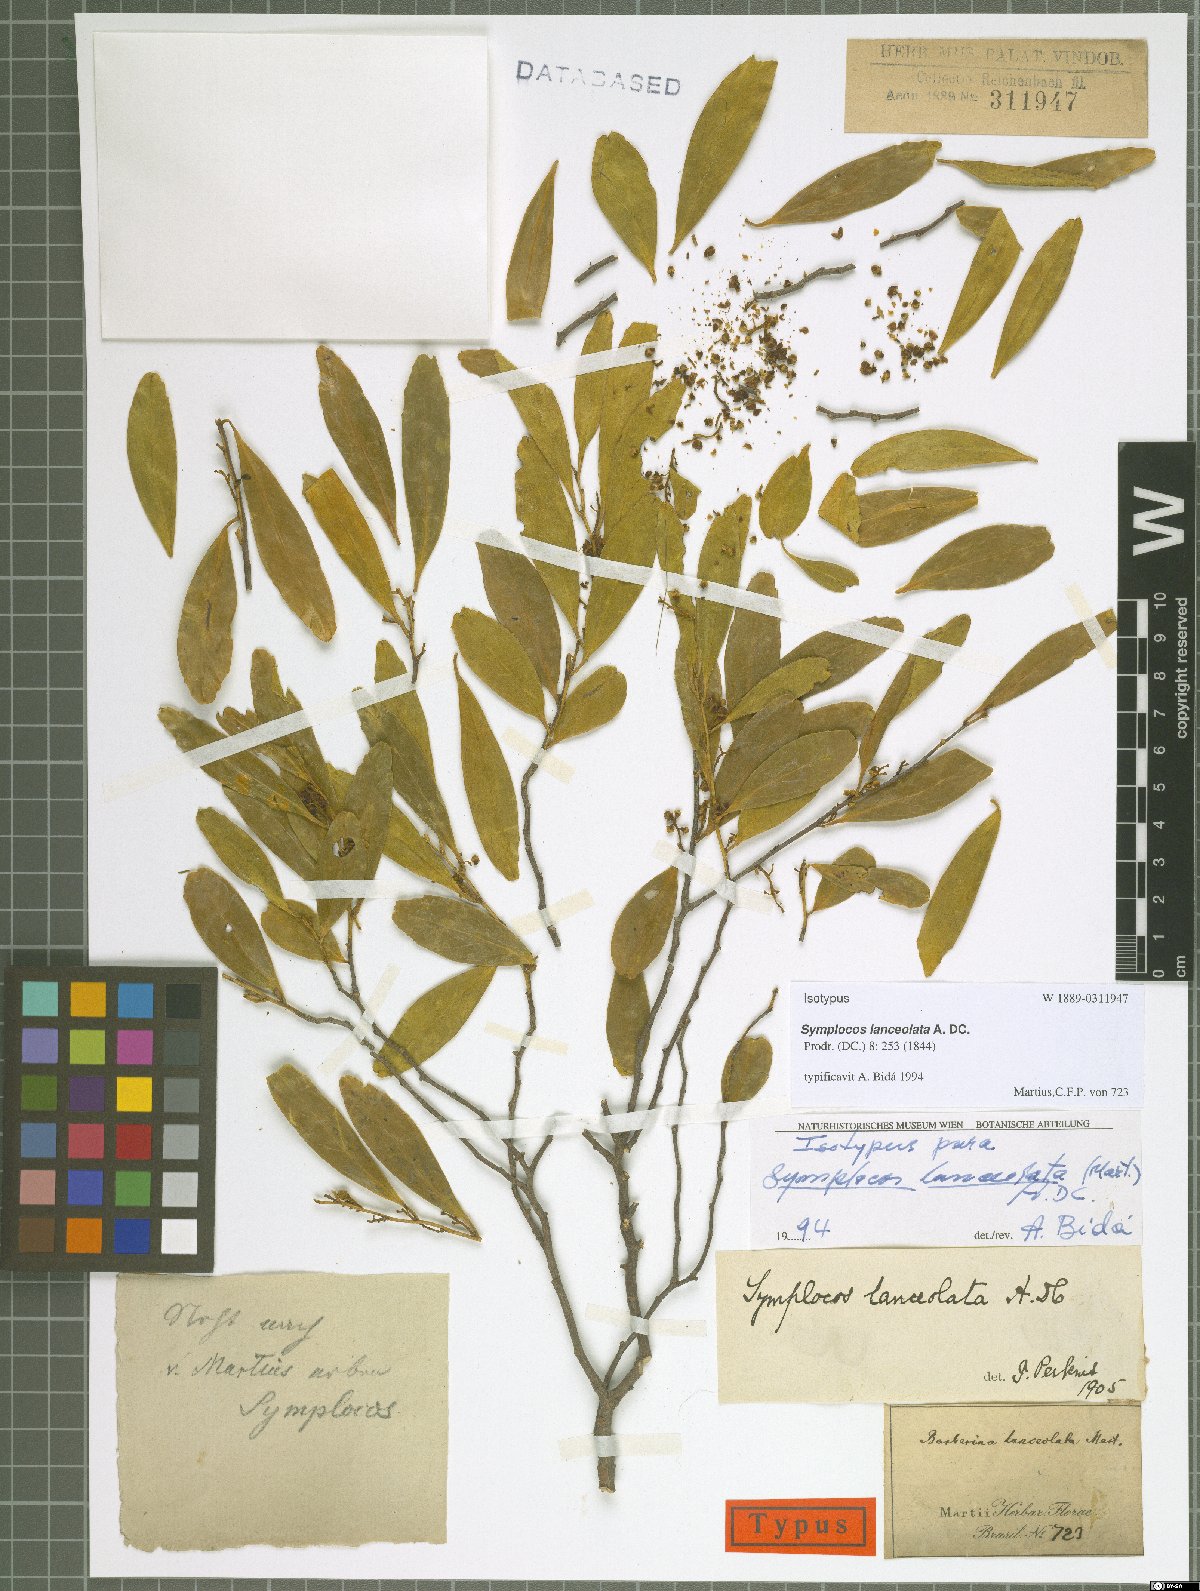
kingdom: Plantae
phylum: Tracheophyta
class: Magnoliopsida
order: Ericales
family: Symplocaceae
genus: Symplocos
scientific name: Symplocos oblongifolia
